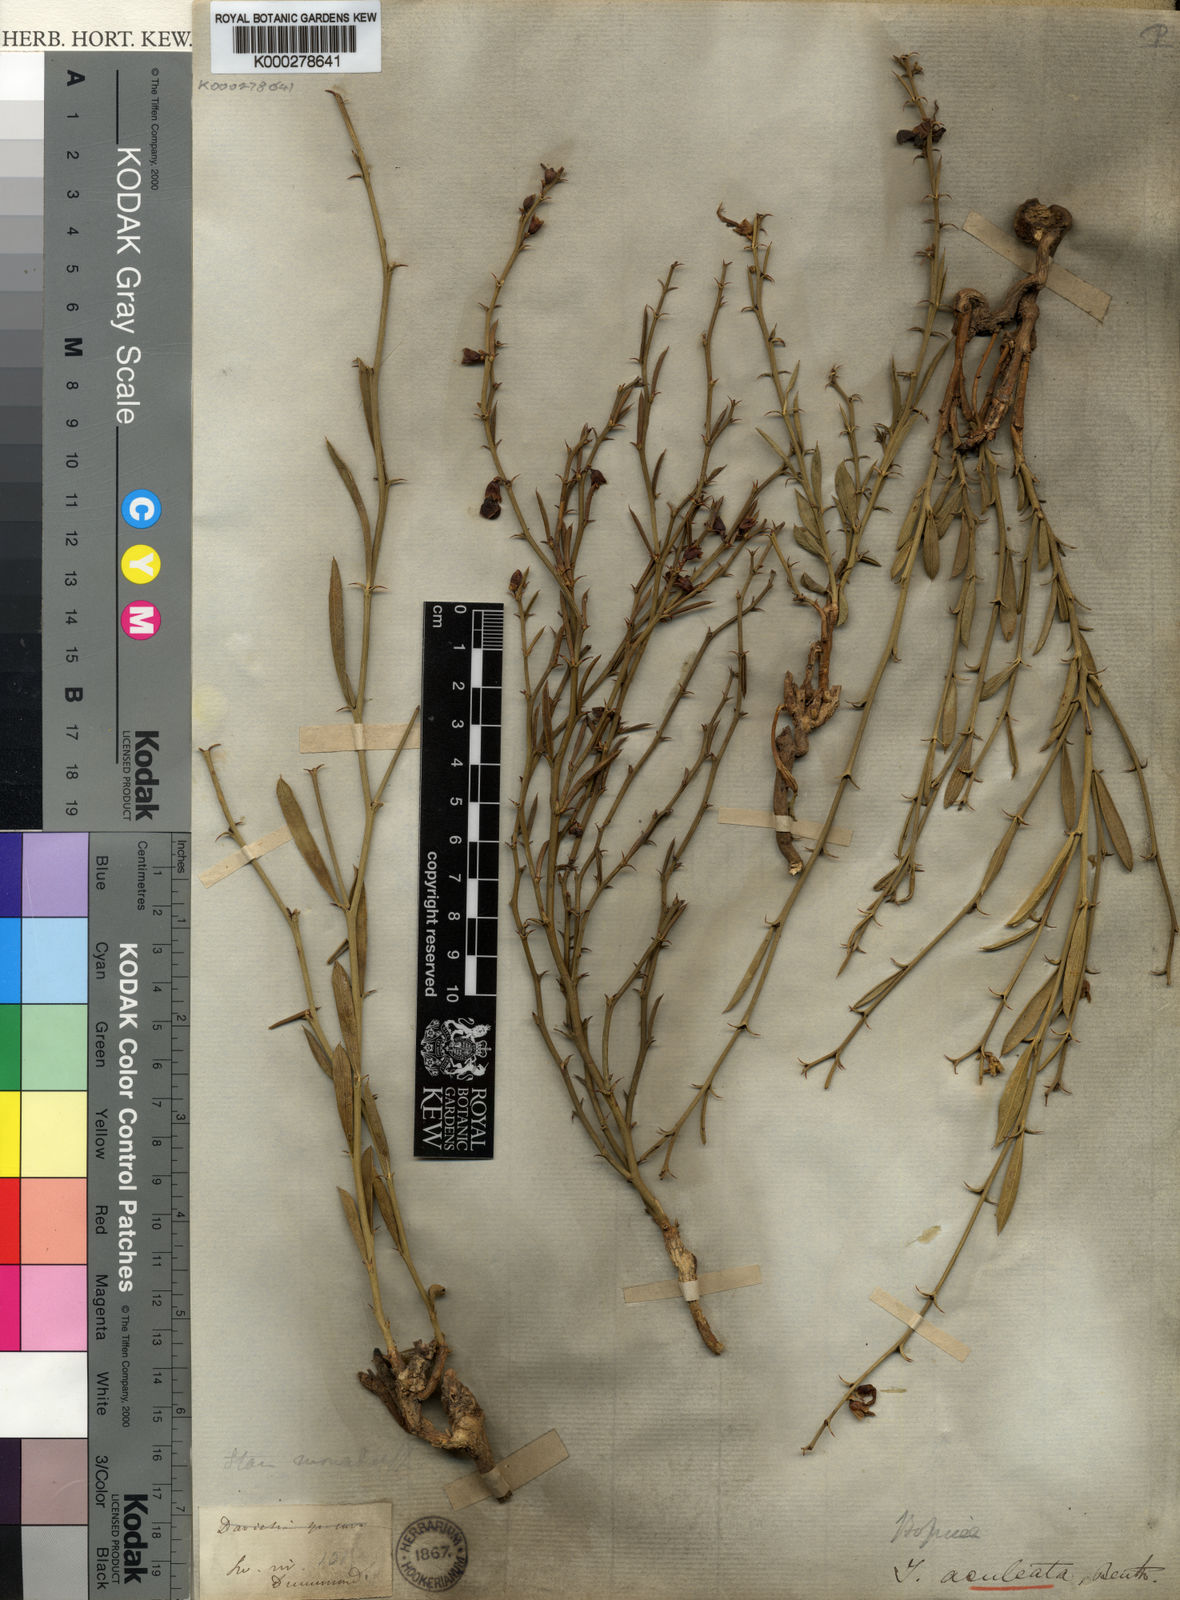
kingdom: Plantae
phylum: Tracheophyta
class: Magnoliopsida
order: Fabales
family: Fabaceae
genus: Templetonia
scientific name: Templetonia aculeata
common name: Spiny mallee pea
